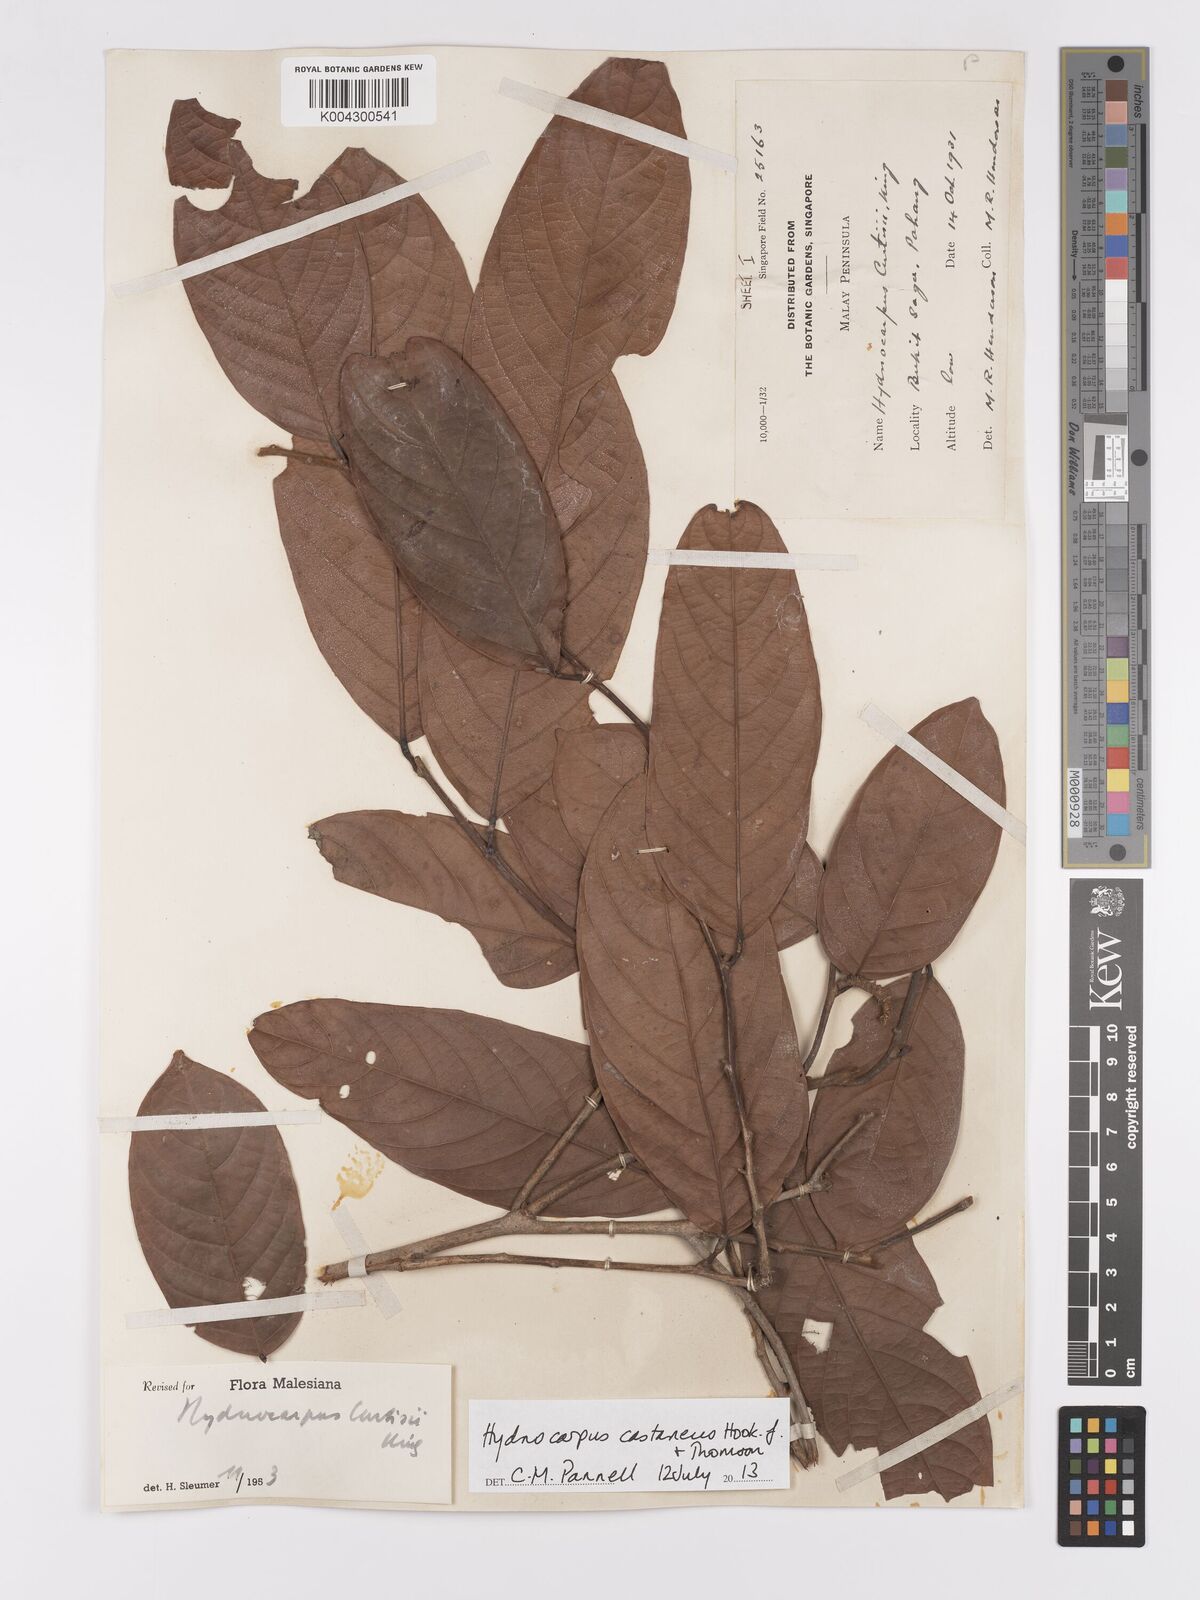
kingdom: Plantae
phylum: Tracheophyta
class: Magnoliopsida
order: Malpighiales
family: Achariaceae
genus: Hydnocarpus
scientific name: Hydnocarpus curtisii
